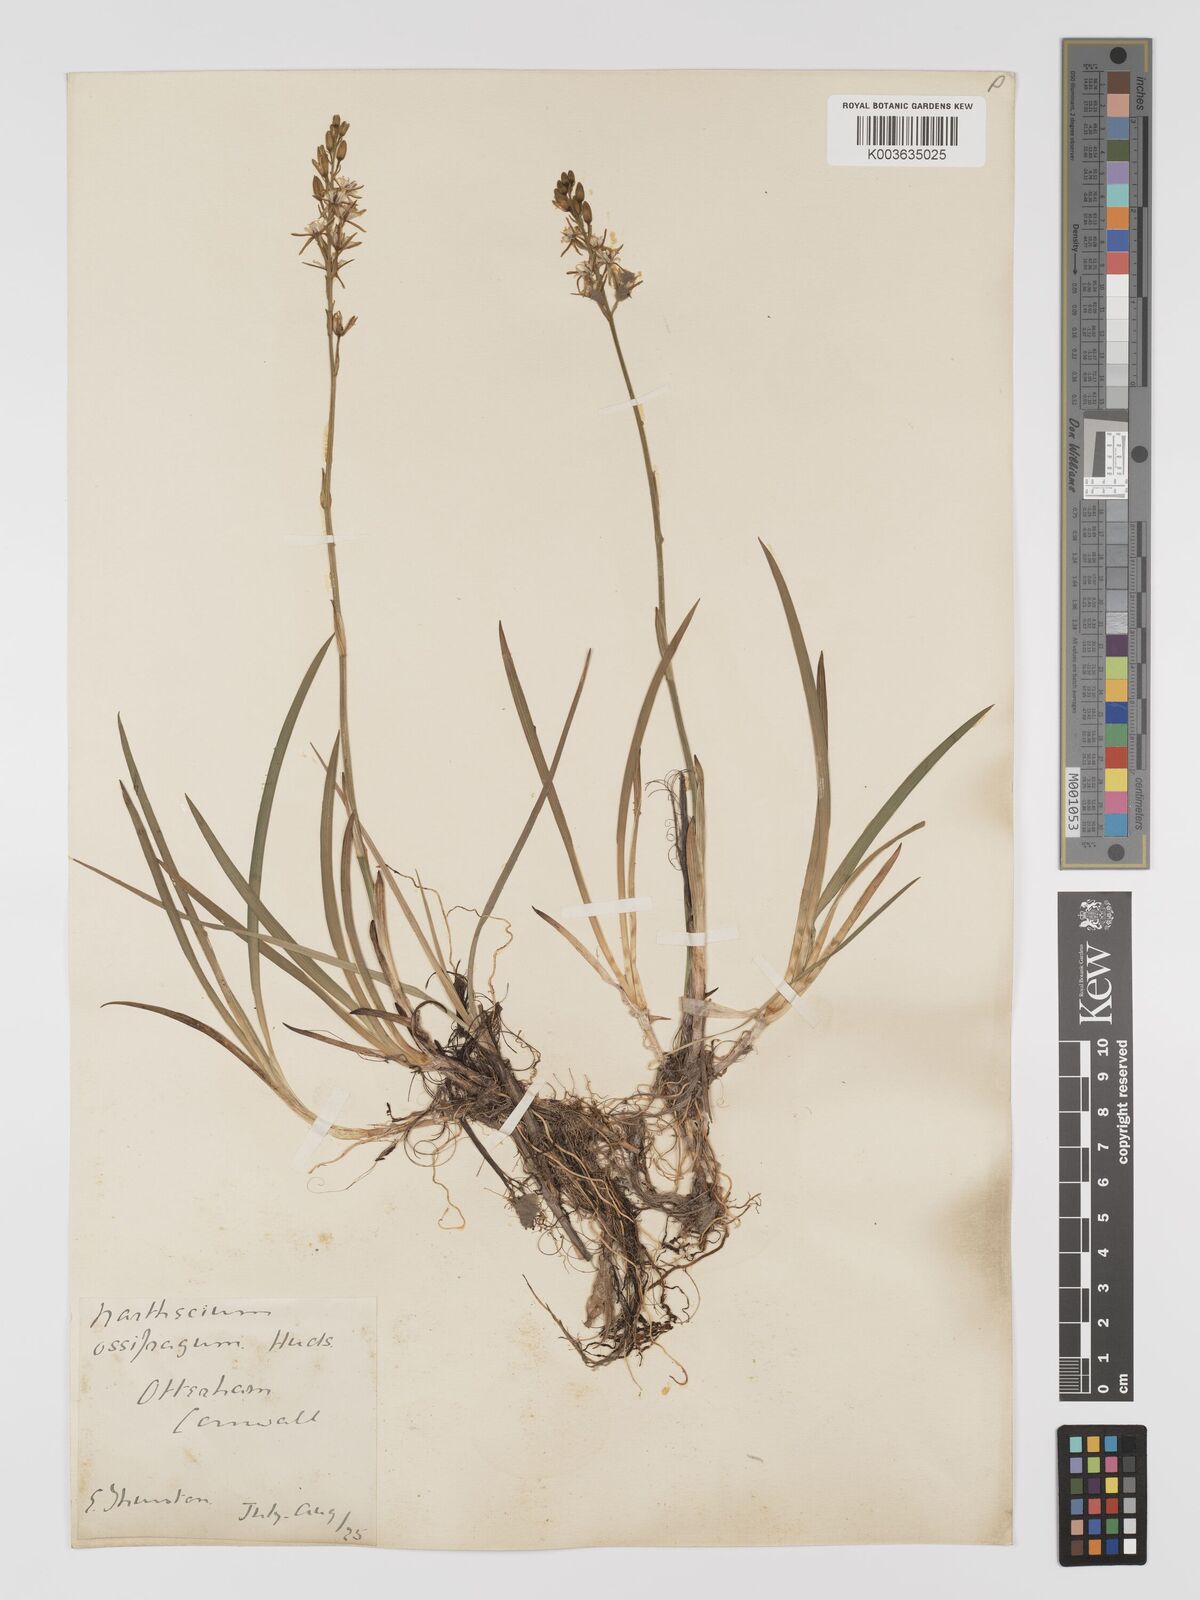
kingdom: Plantae
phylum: Tracheophyta
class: Liliopsida
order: Dioscoreales
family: Nartheciaceae
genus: Narthecium
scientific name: Narthecium ossifragum
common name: Bog asphodel
